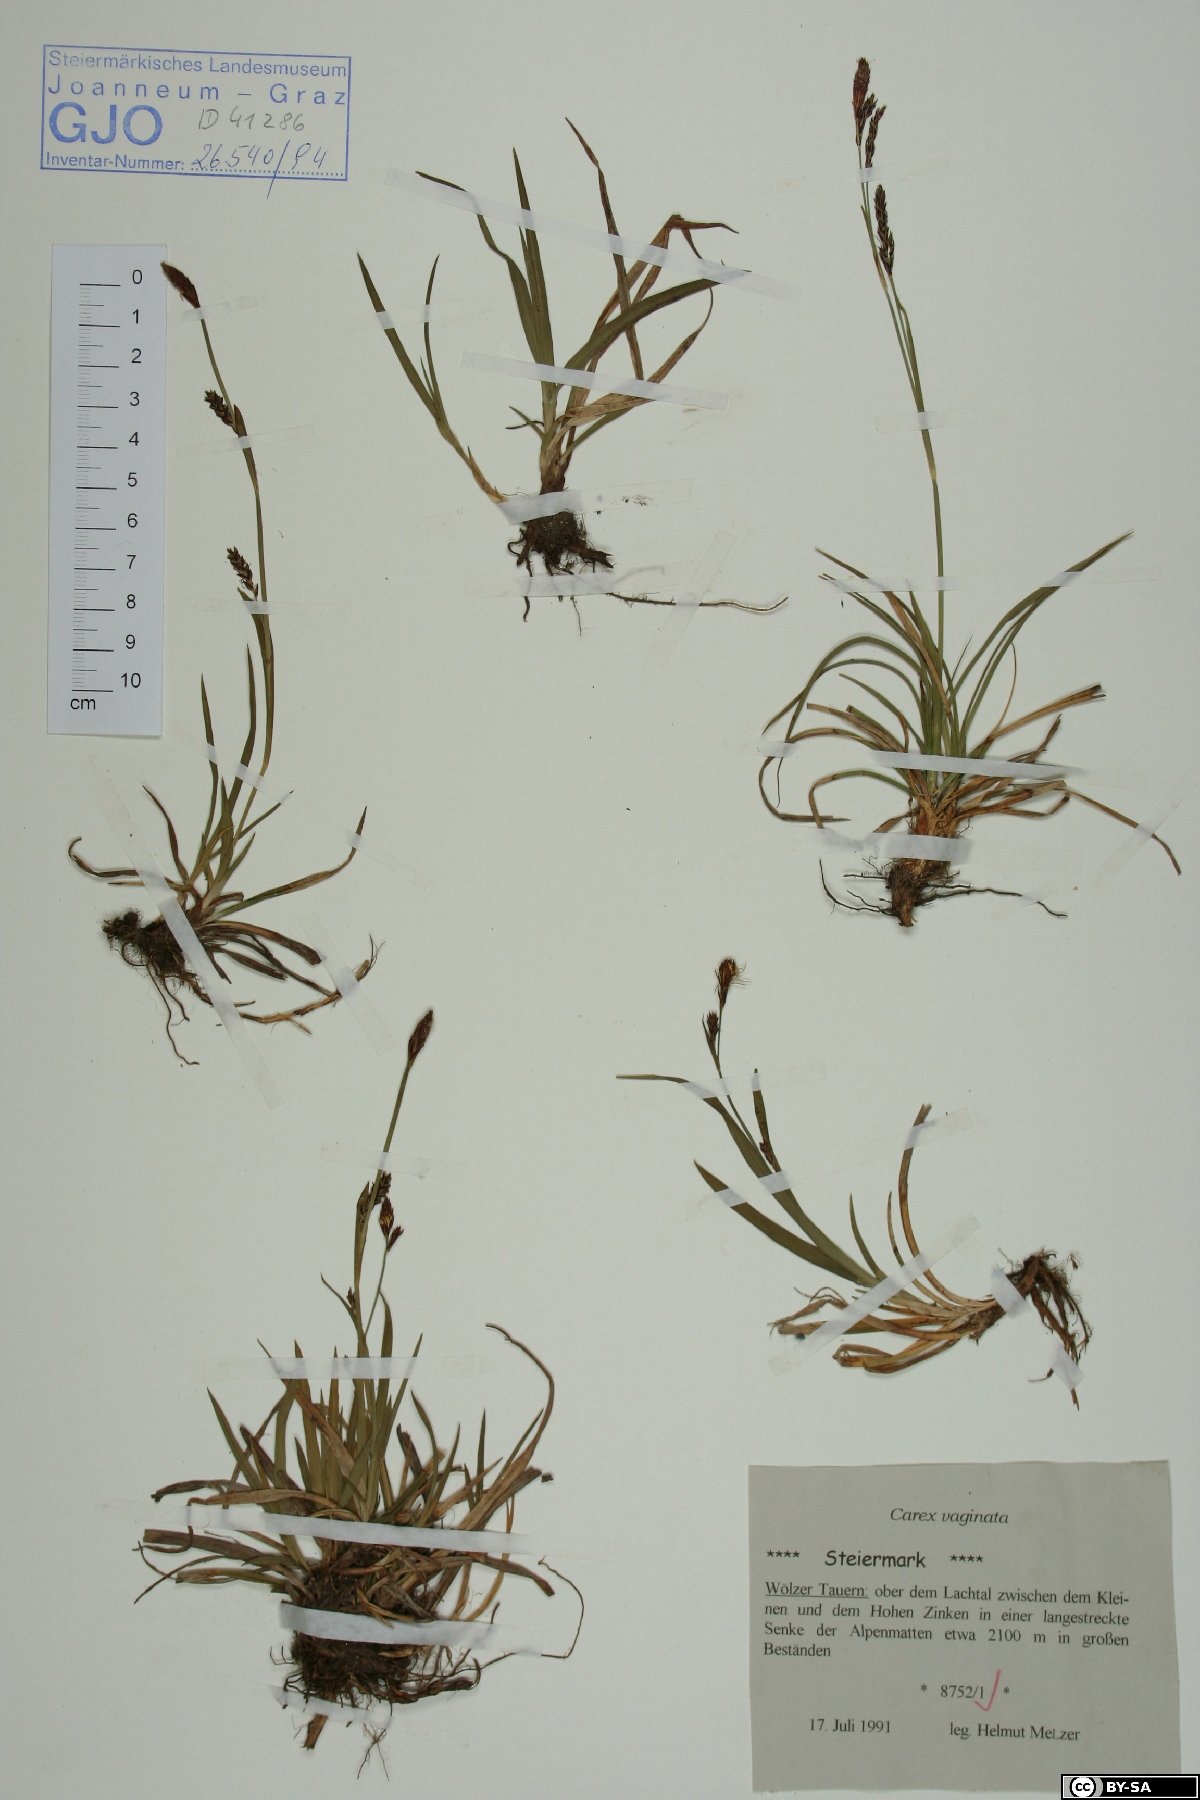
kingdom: Plantae
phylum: Tracheophyta
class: Liliopsida
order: Poales
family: Cyperaceae
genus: Carex
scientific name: Carex vaginata
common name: Sheathed sedge
